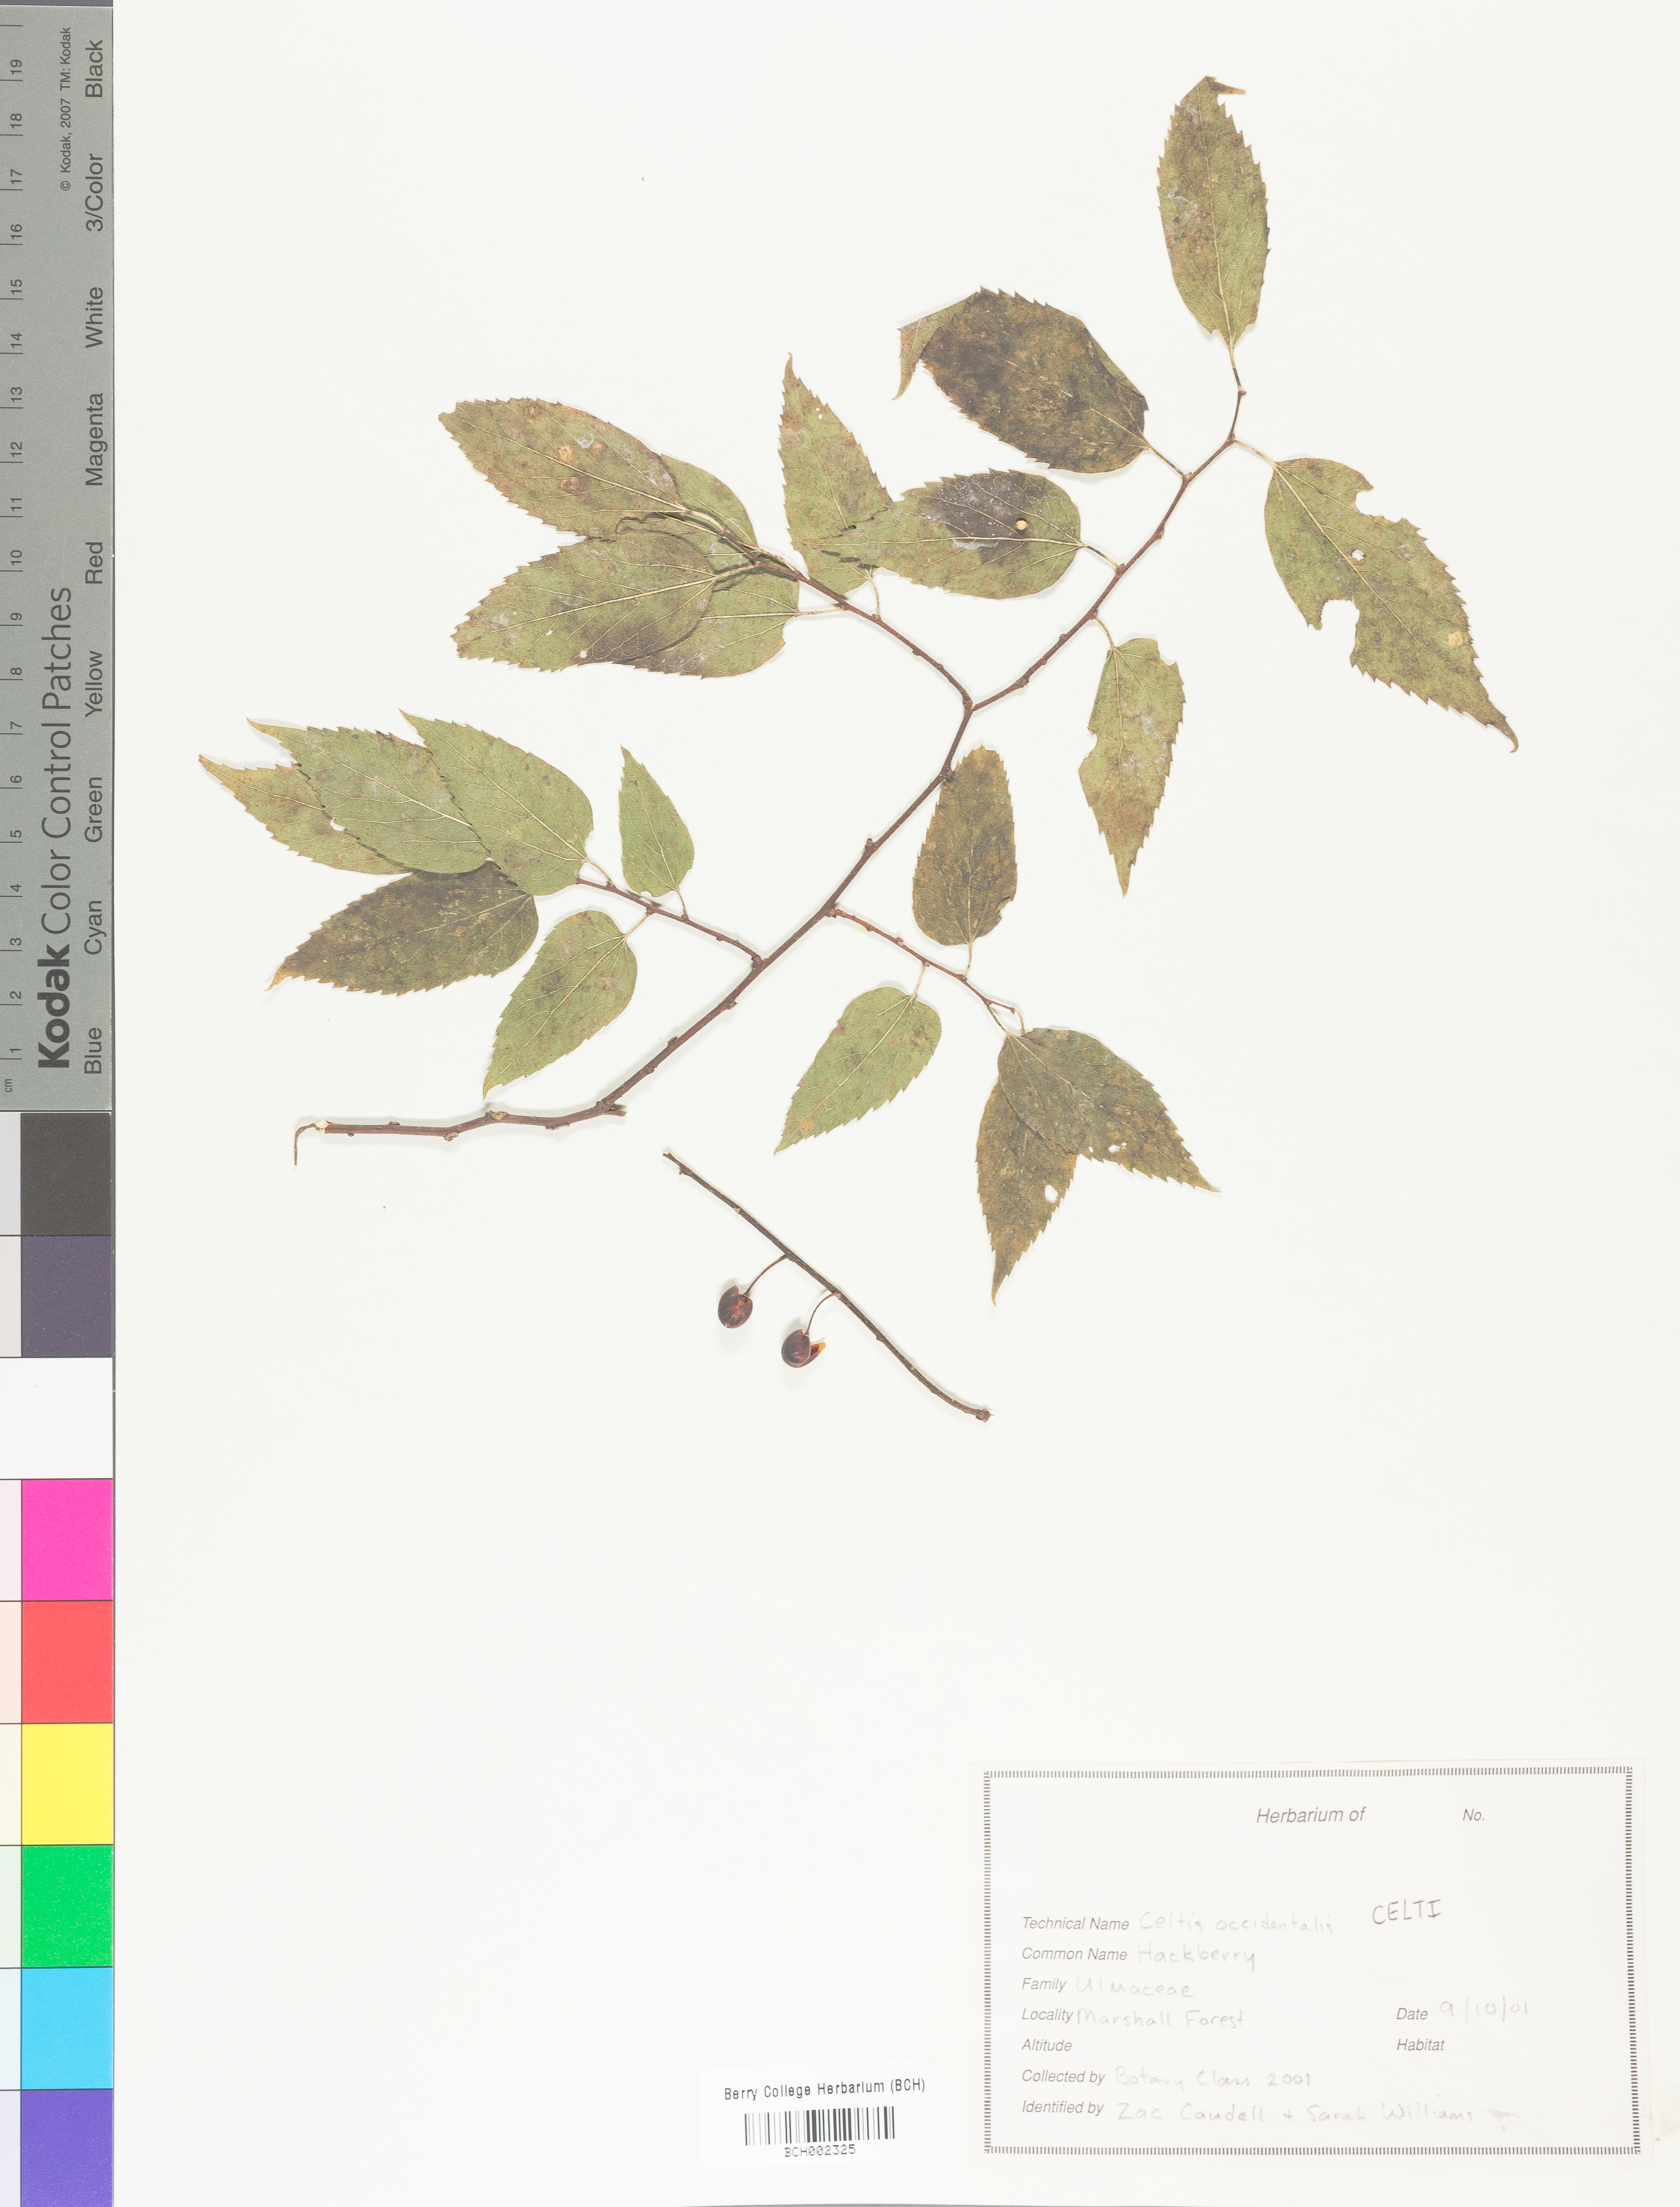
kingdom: Plantae
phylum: Tracheophyta
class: Magnoliopsida
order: Rosales
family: Cannabaceae
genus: Celtis
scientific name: Celtis
